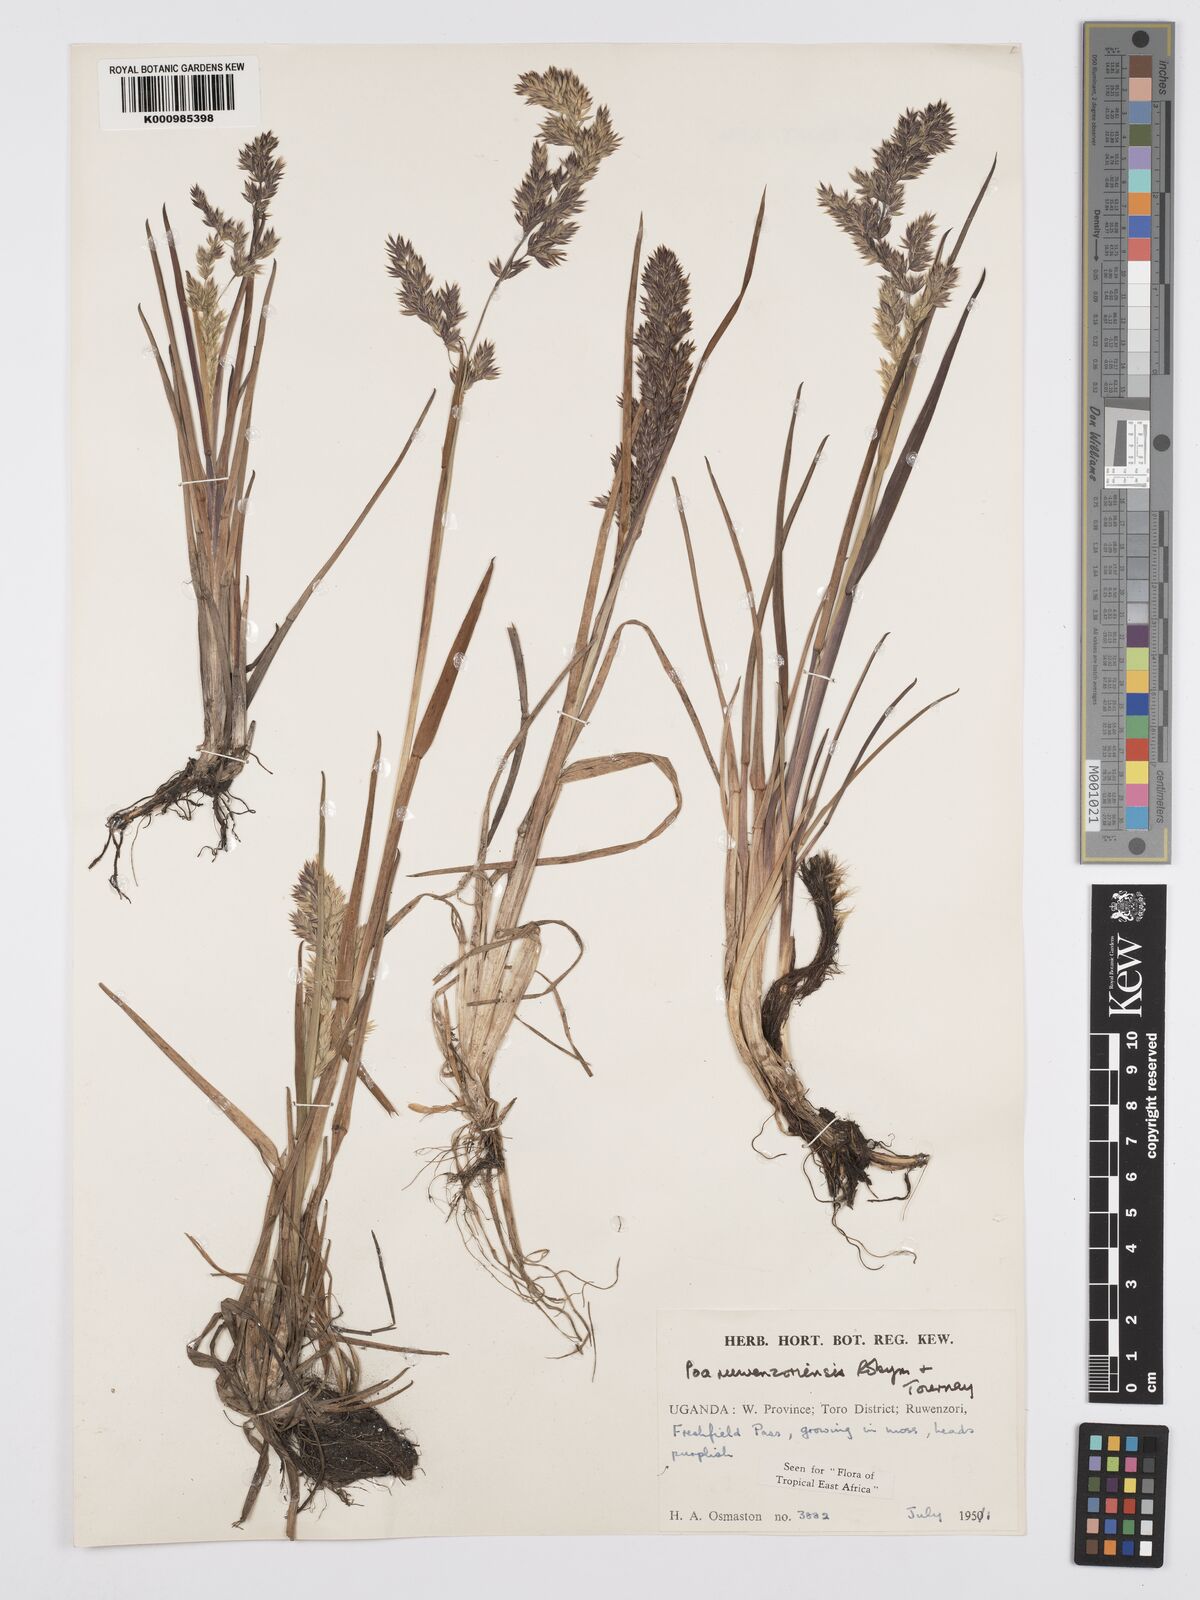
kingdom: Plantae
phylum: Tracheophyta
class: Liliopsida
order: Poales
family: Poaceae
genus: Poa
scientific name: Poa ruwenzoriensis
